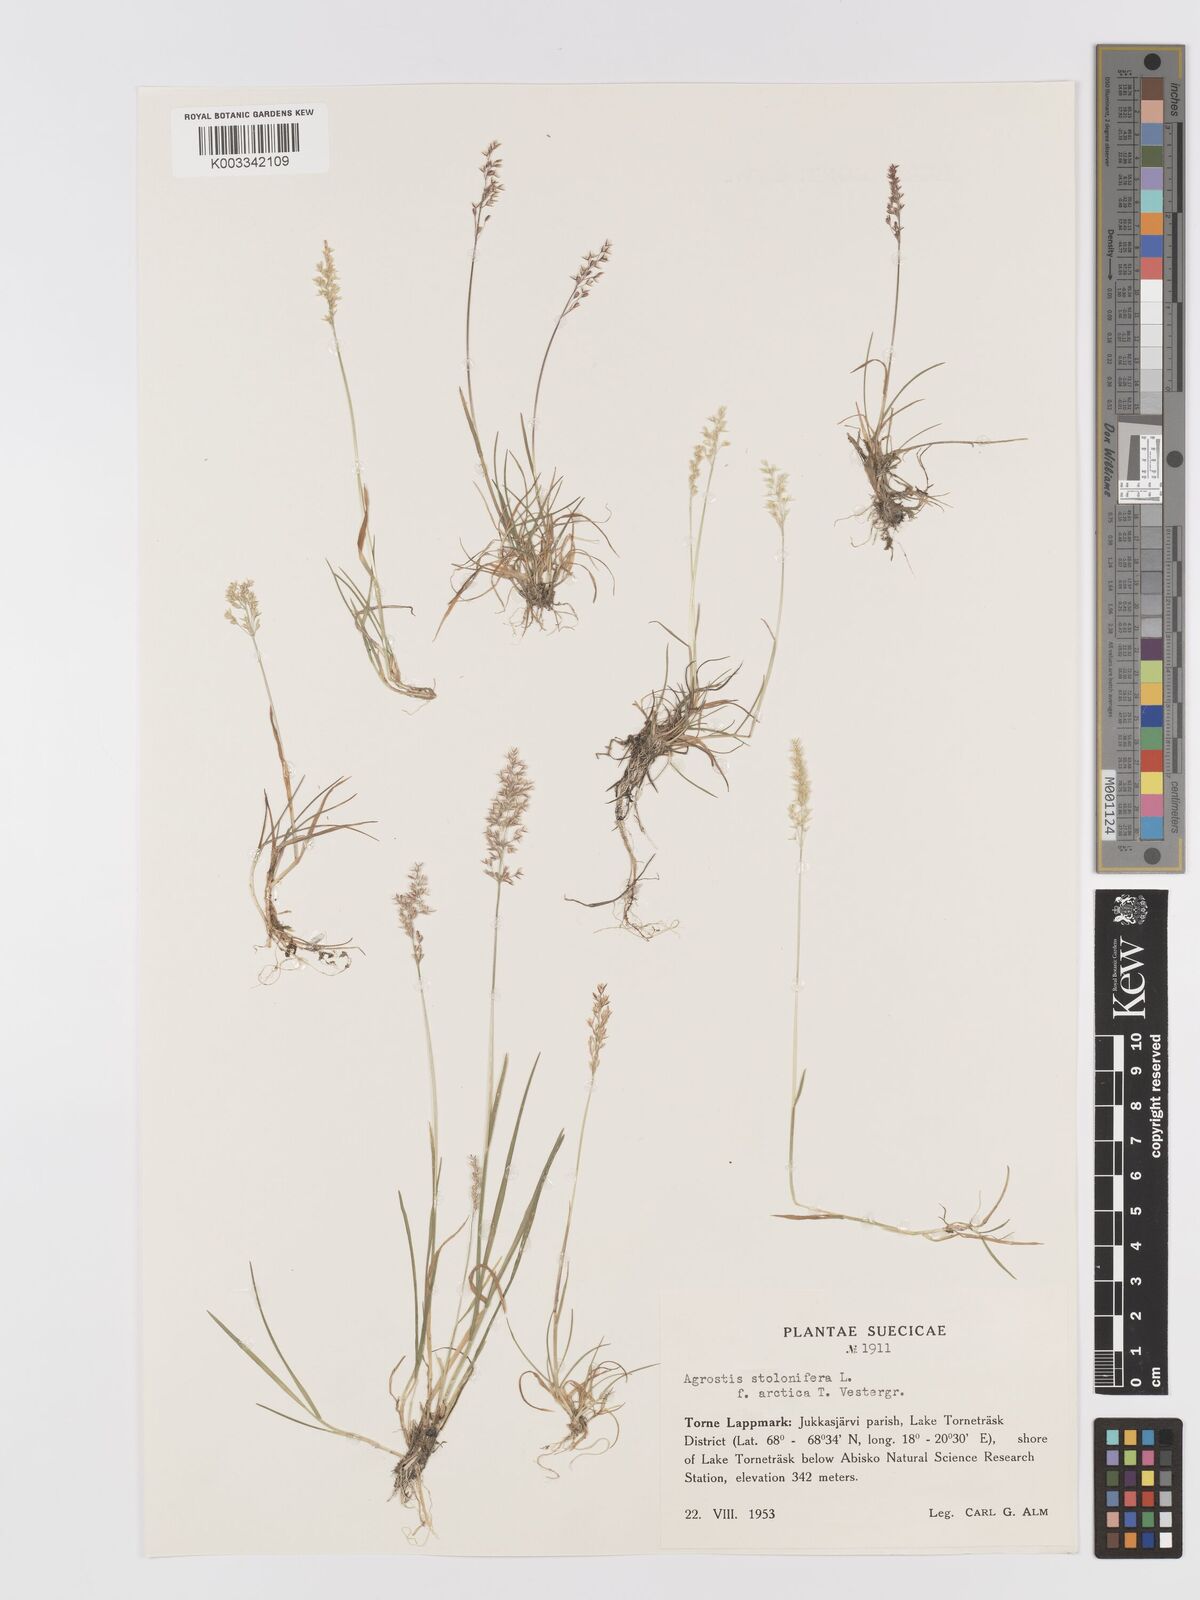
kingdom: Plantae
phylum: Tracheophyta
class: Liliopsida
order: Poales
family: Poaceae
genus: Agrostis
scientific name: Agrostis stolonifera
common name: Creeping bentgrass
